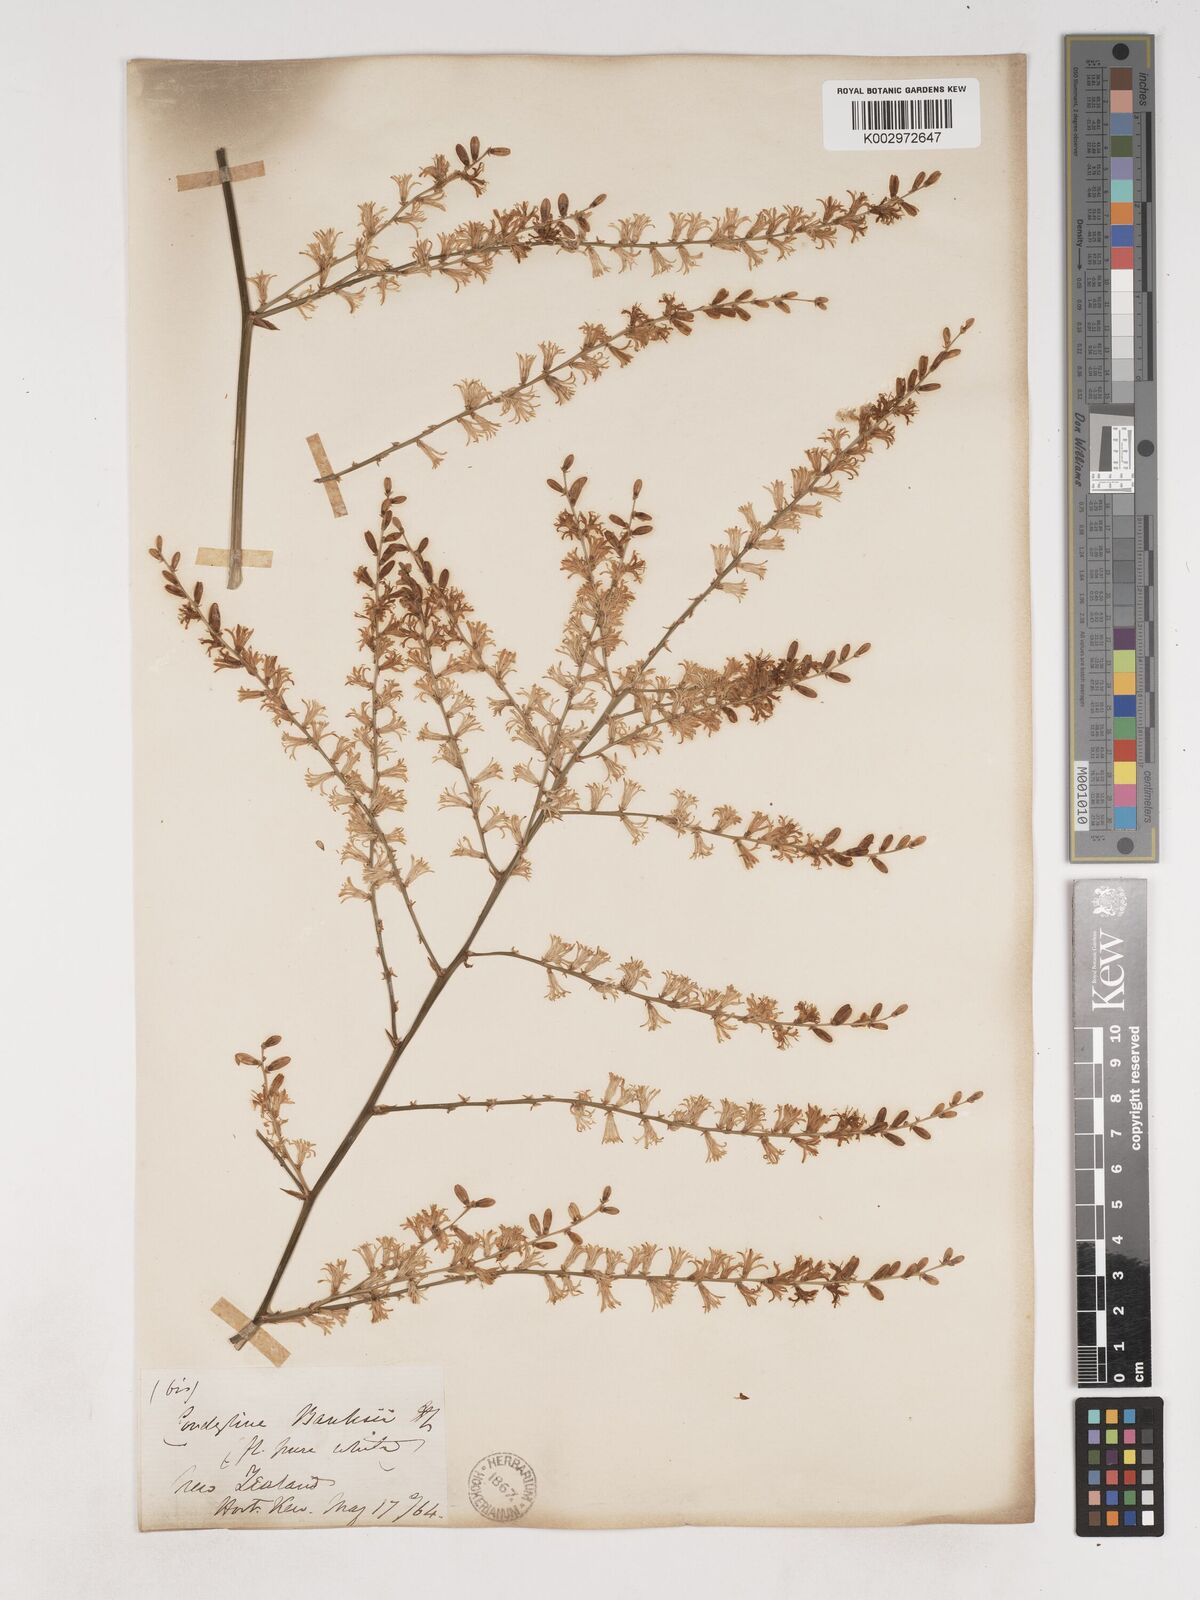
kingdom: Plantae
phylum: Tracheophyta
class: Liliopsida
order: Asparagales
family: Asparagaceae
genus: Cordyline
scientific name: Cordyline banksii
